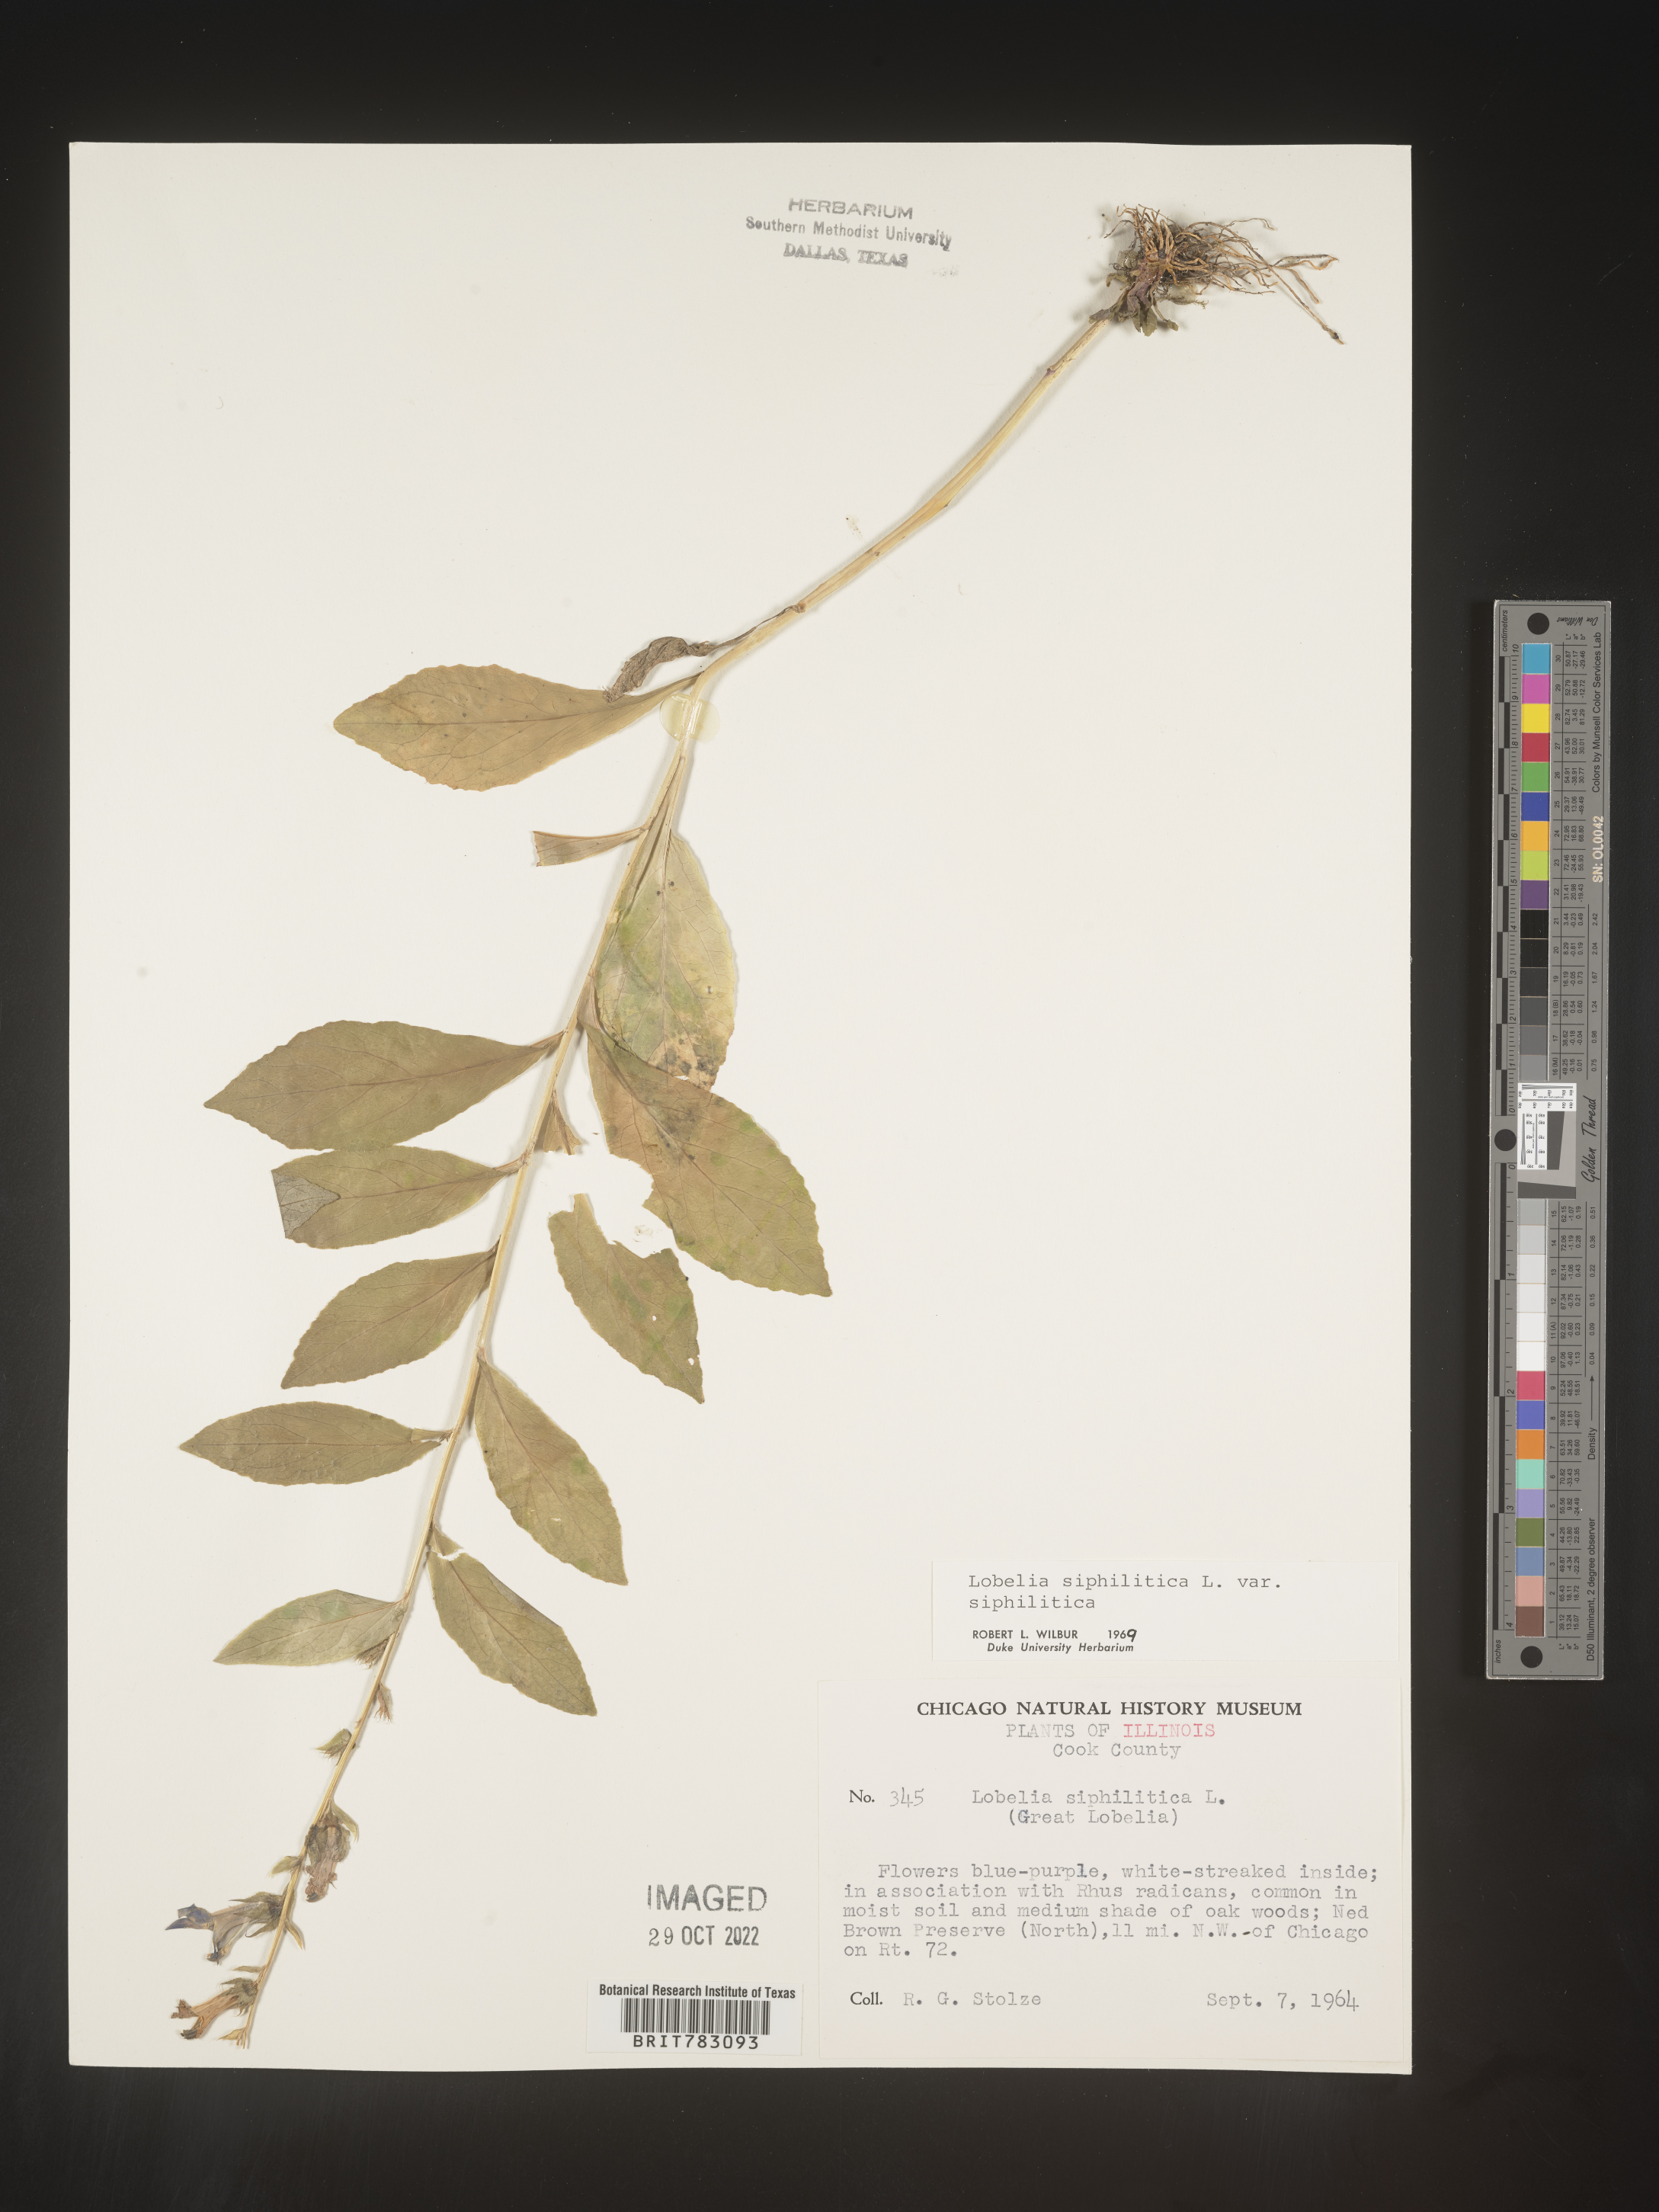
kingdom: Plantae
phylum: Tracheophyta
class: Magnoliopsida
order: Asterales
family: Campanulaceae
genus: Lobelia
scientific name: Lobelia siphilitica
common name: Great lobelia
